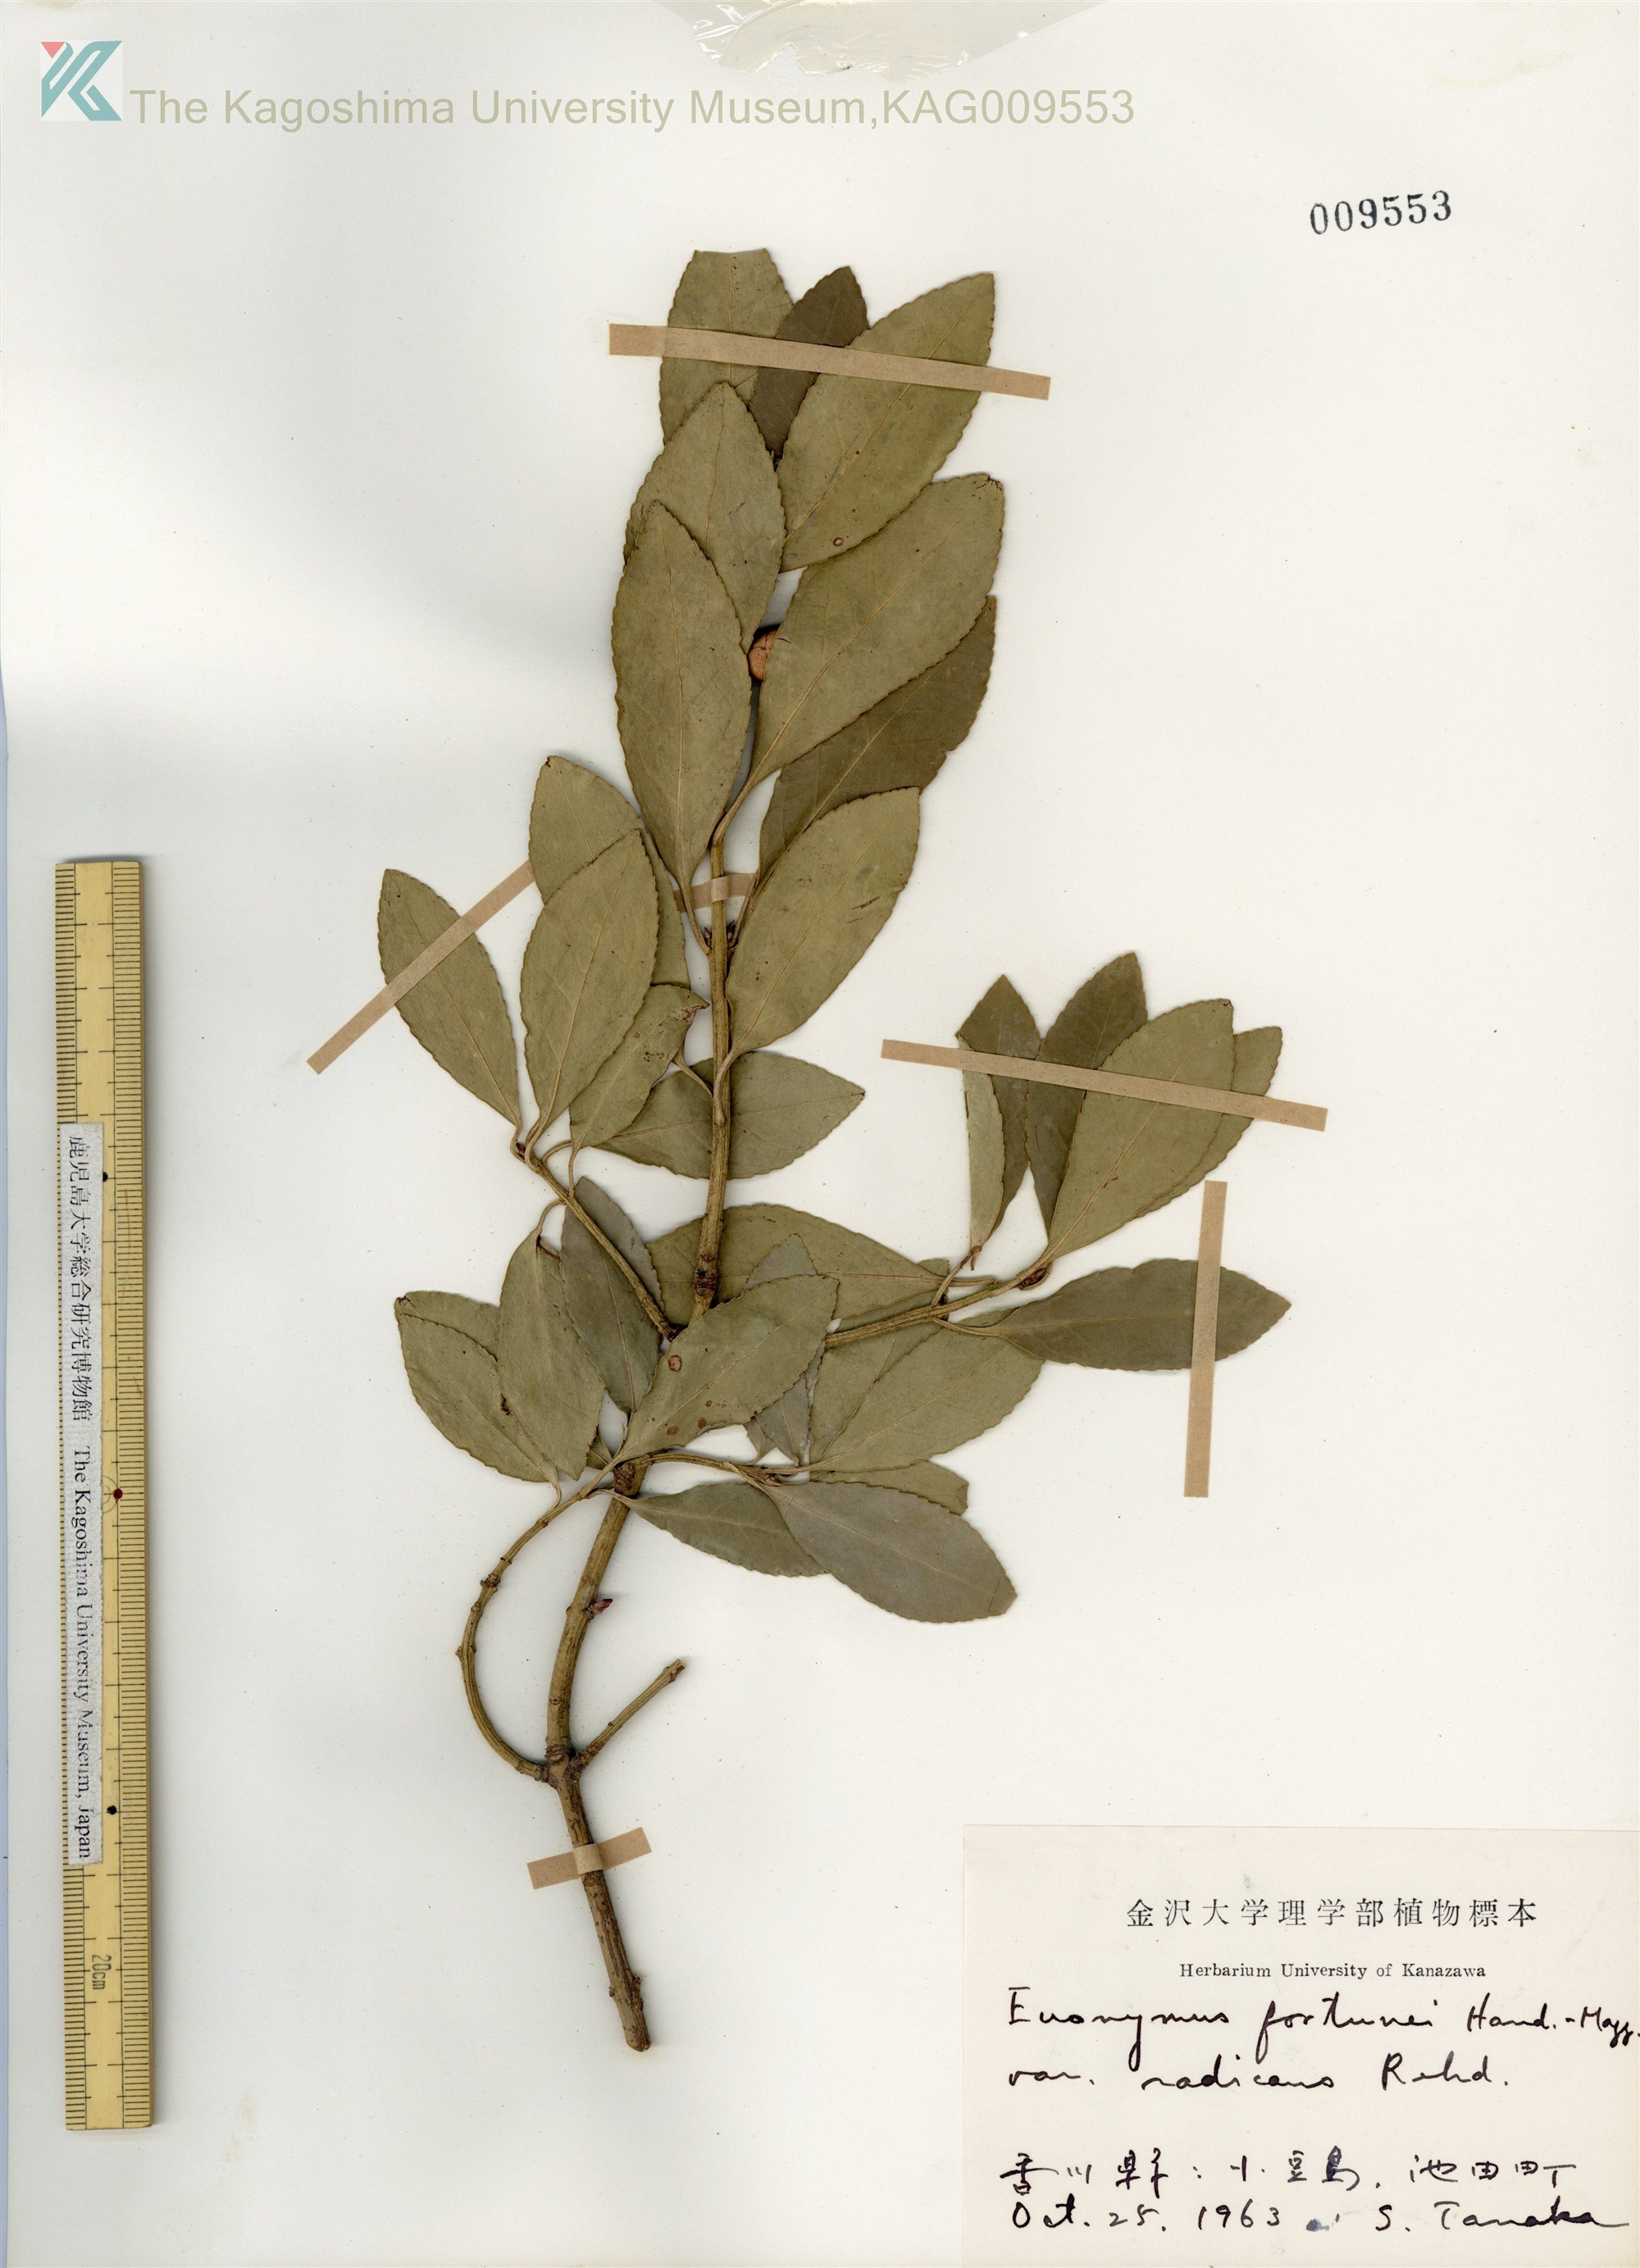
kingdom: Plantae
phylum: Tracheophyta
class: Magnoliopsida
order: Celastrales
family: Celastraceae
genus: Euonymus
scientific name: Euonymus fortunei
